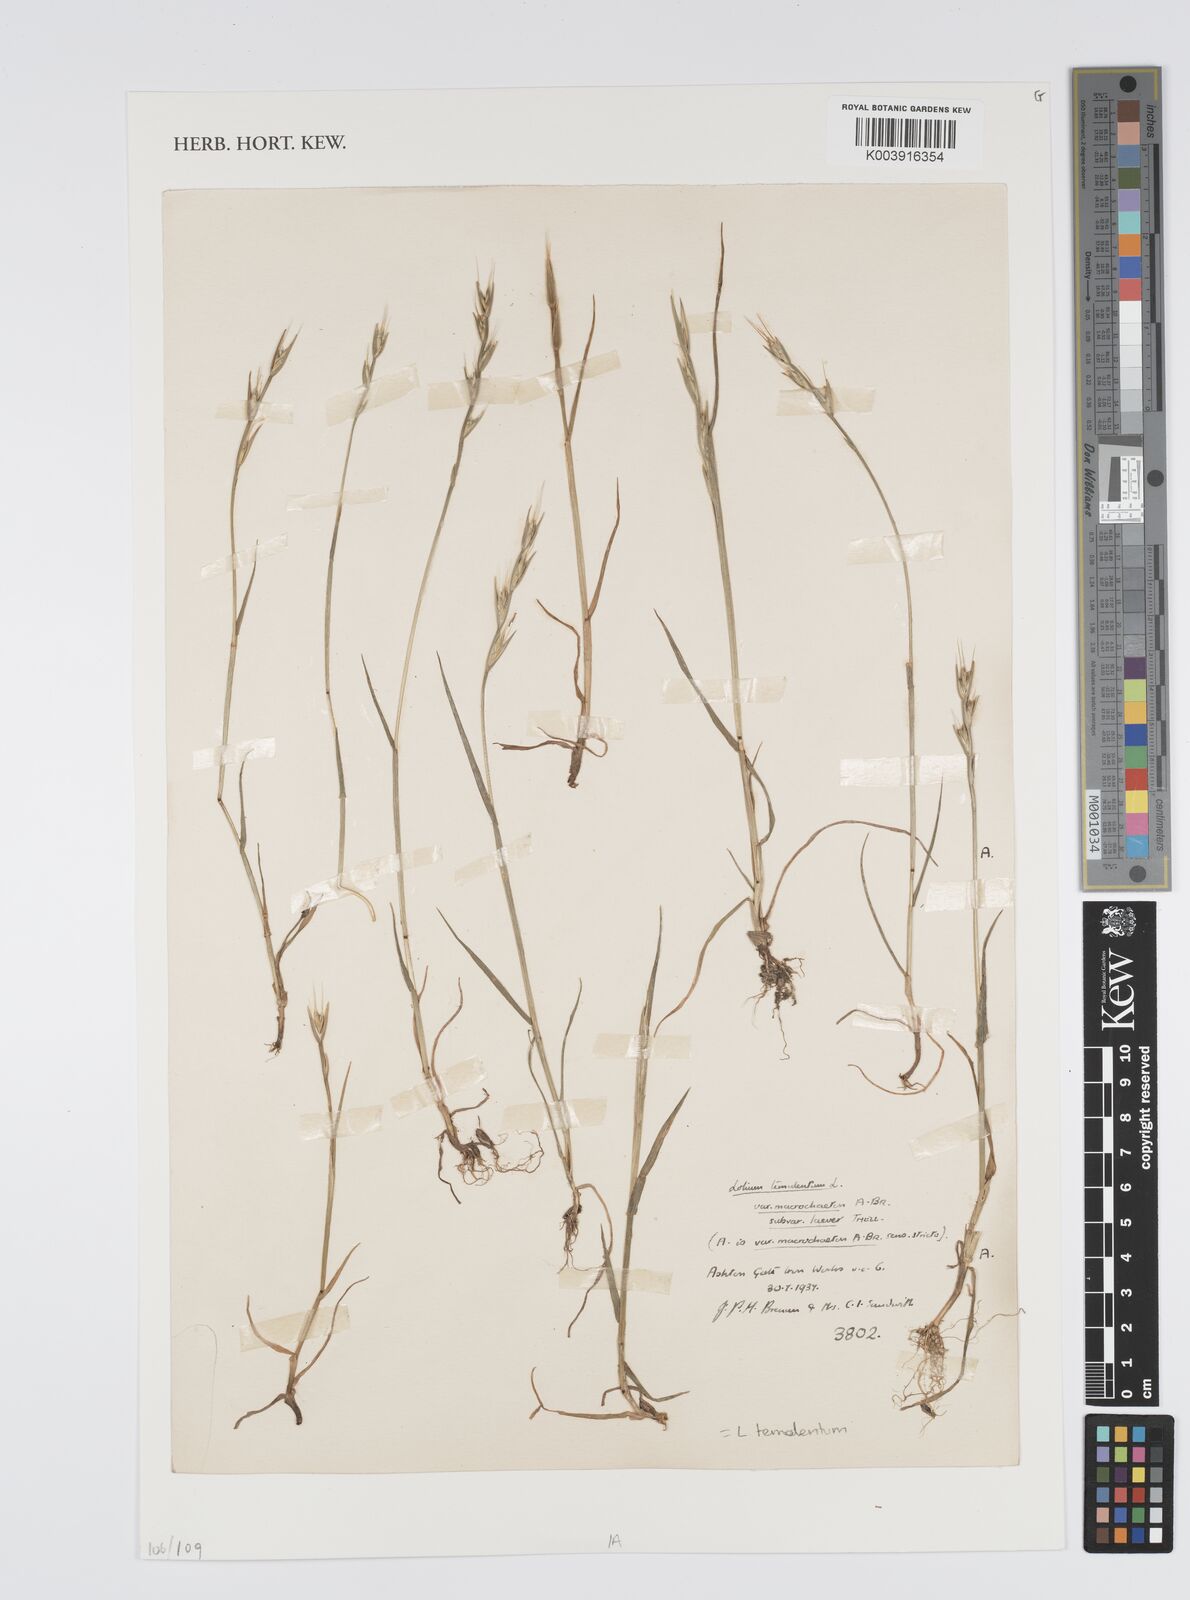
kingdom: Plantae
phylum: Tracheophyta
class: Liliopsida
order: Poales
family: Poaceae
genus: Lolium
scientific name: Lolium temulentum
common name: Darnel
